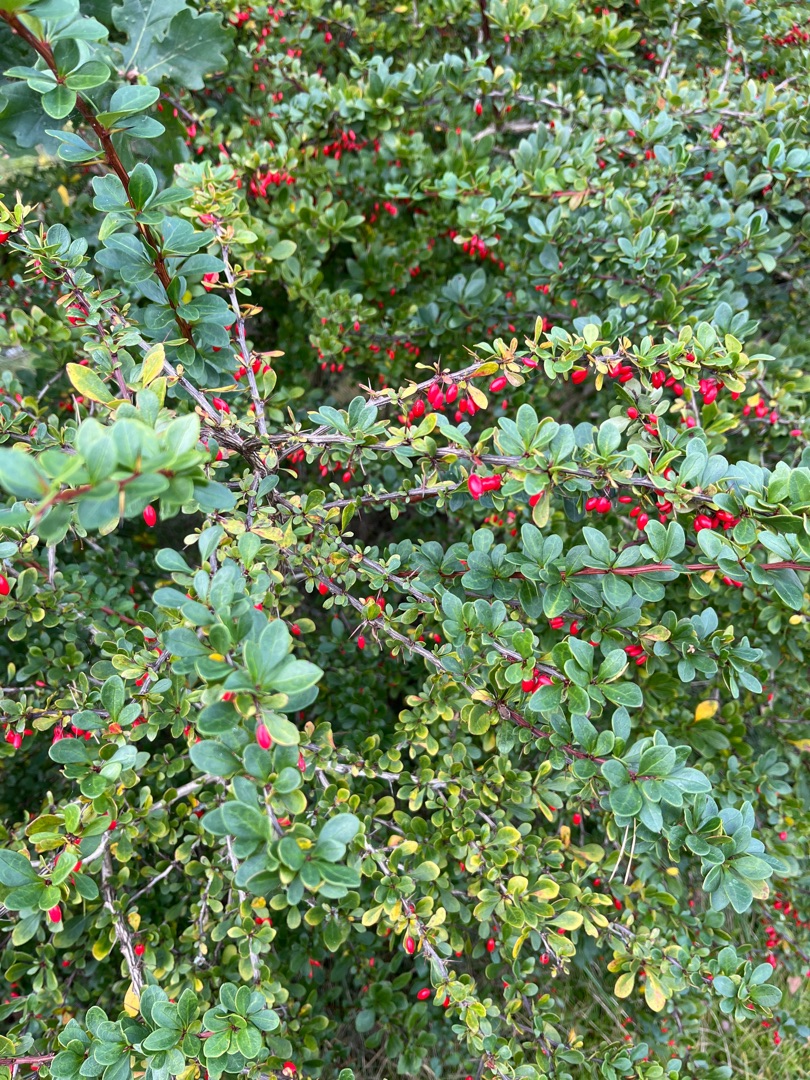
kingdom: Plantae
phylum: Tracheophyta
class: Magnoliopsida
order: Ranunculales
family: Berberidaceae
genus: Berberis
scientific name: Berberis thunbergii
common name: Hæk-berberis
